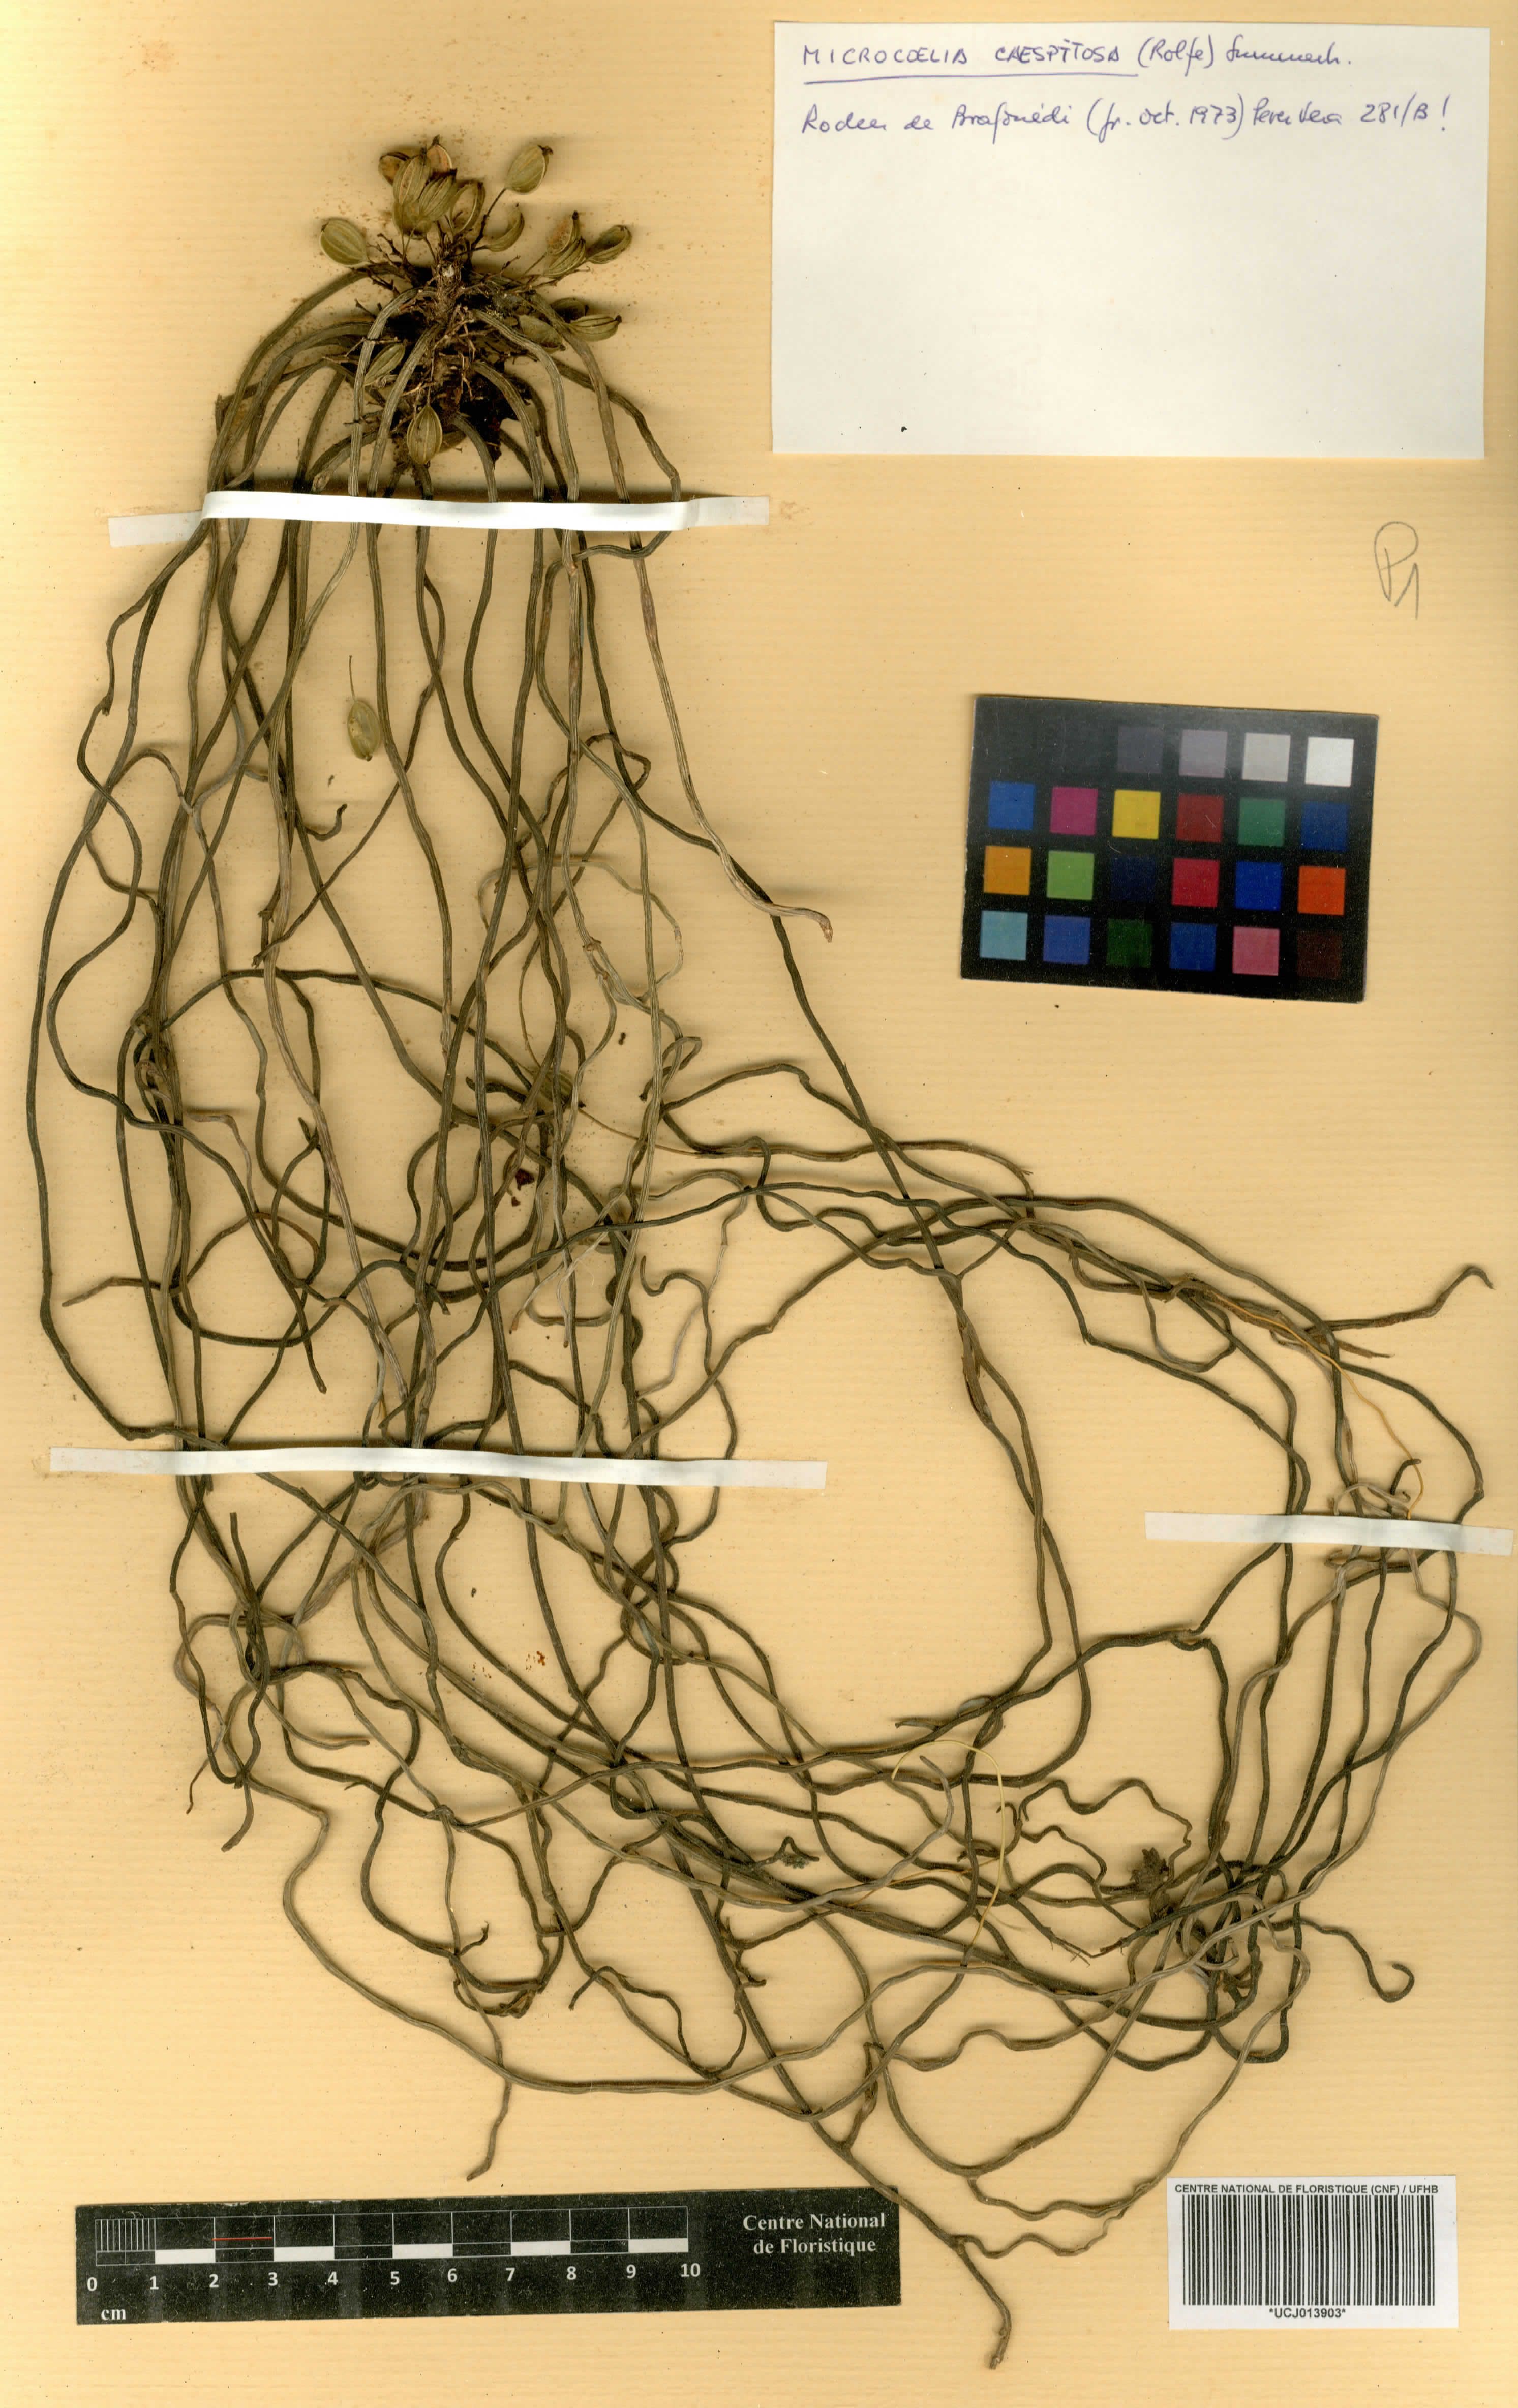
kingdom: Plantae
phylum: Tracheophyta
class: Liliopsida
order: Asparagales
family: Orchidaceae
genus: Microcoelia
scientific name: Microcoelia caespitosa
